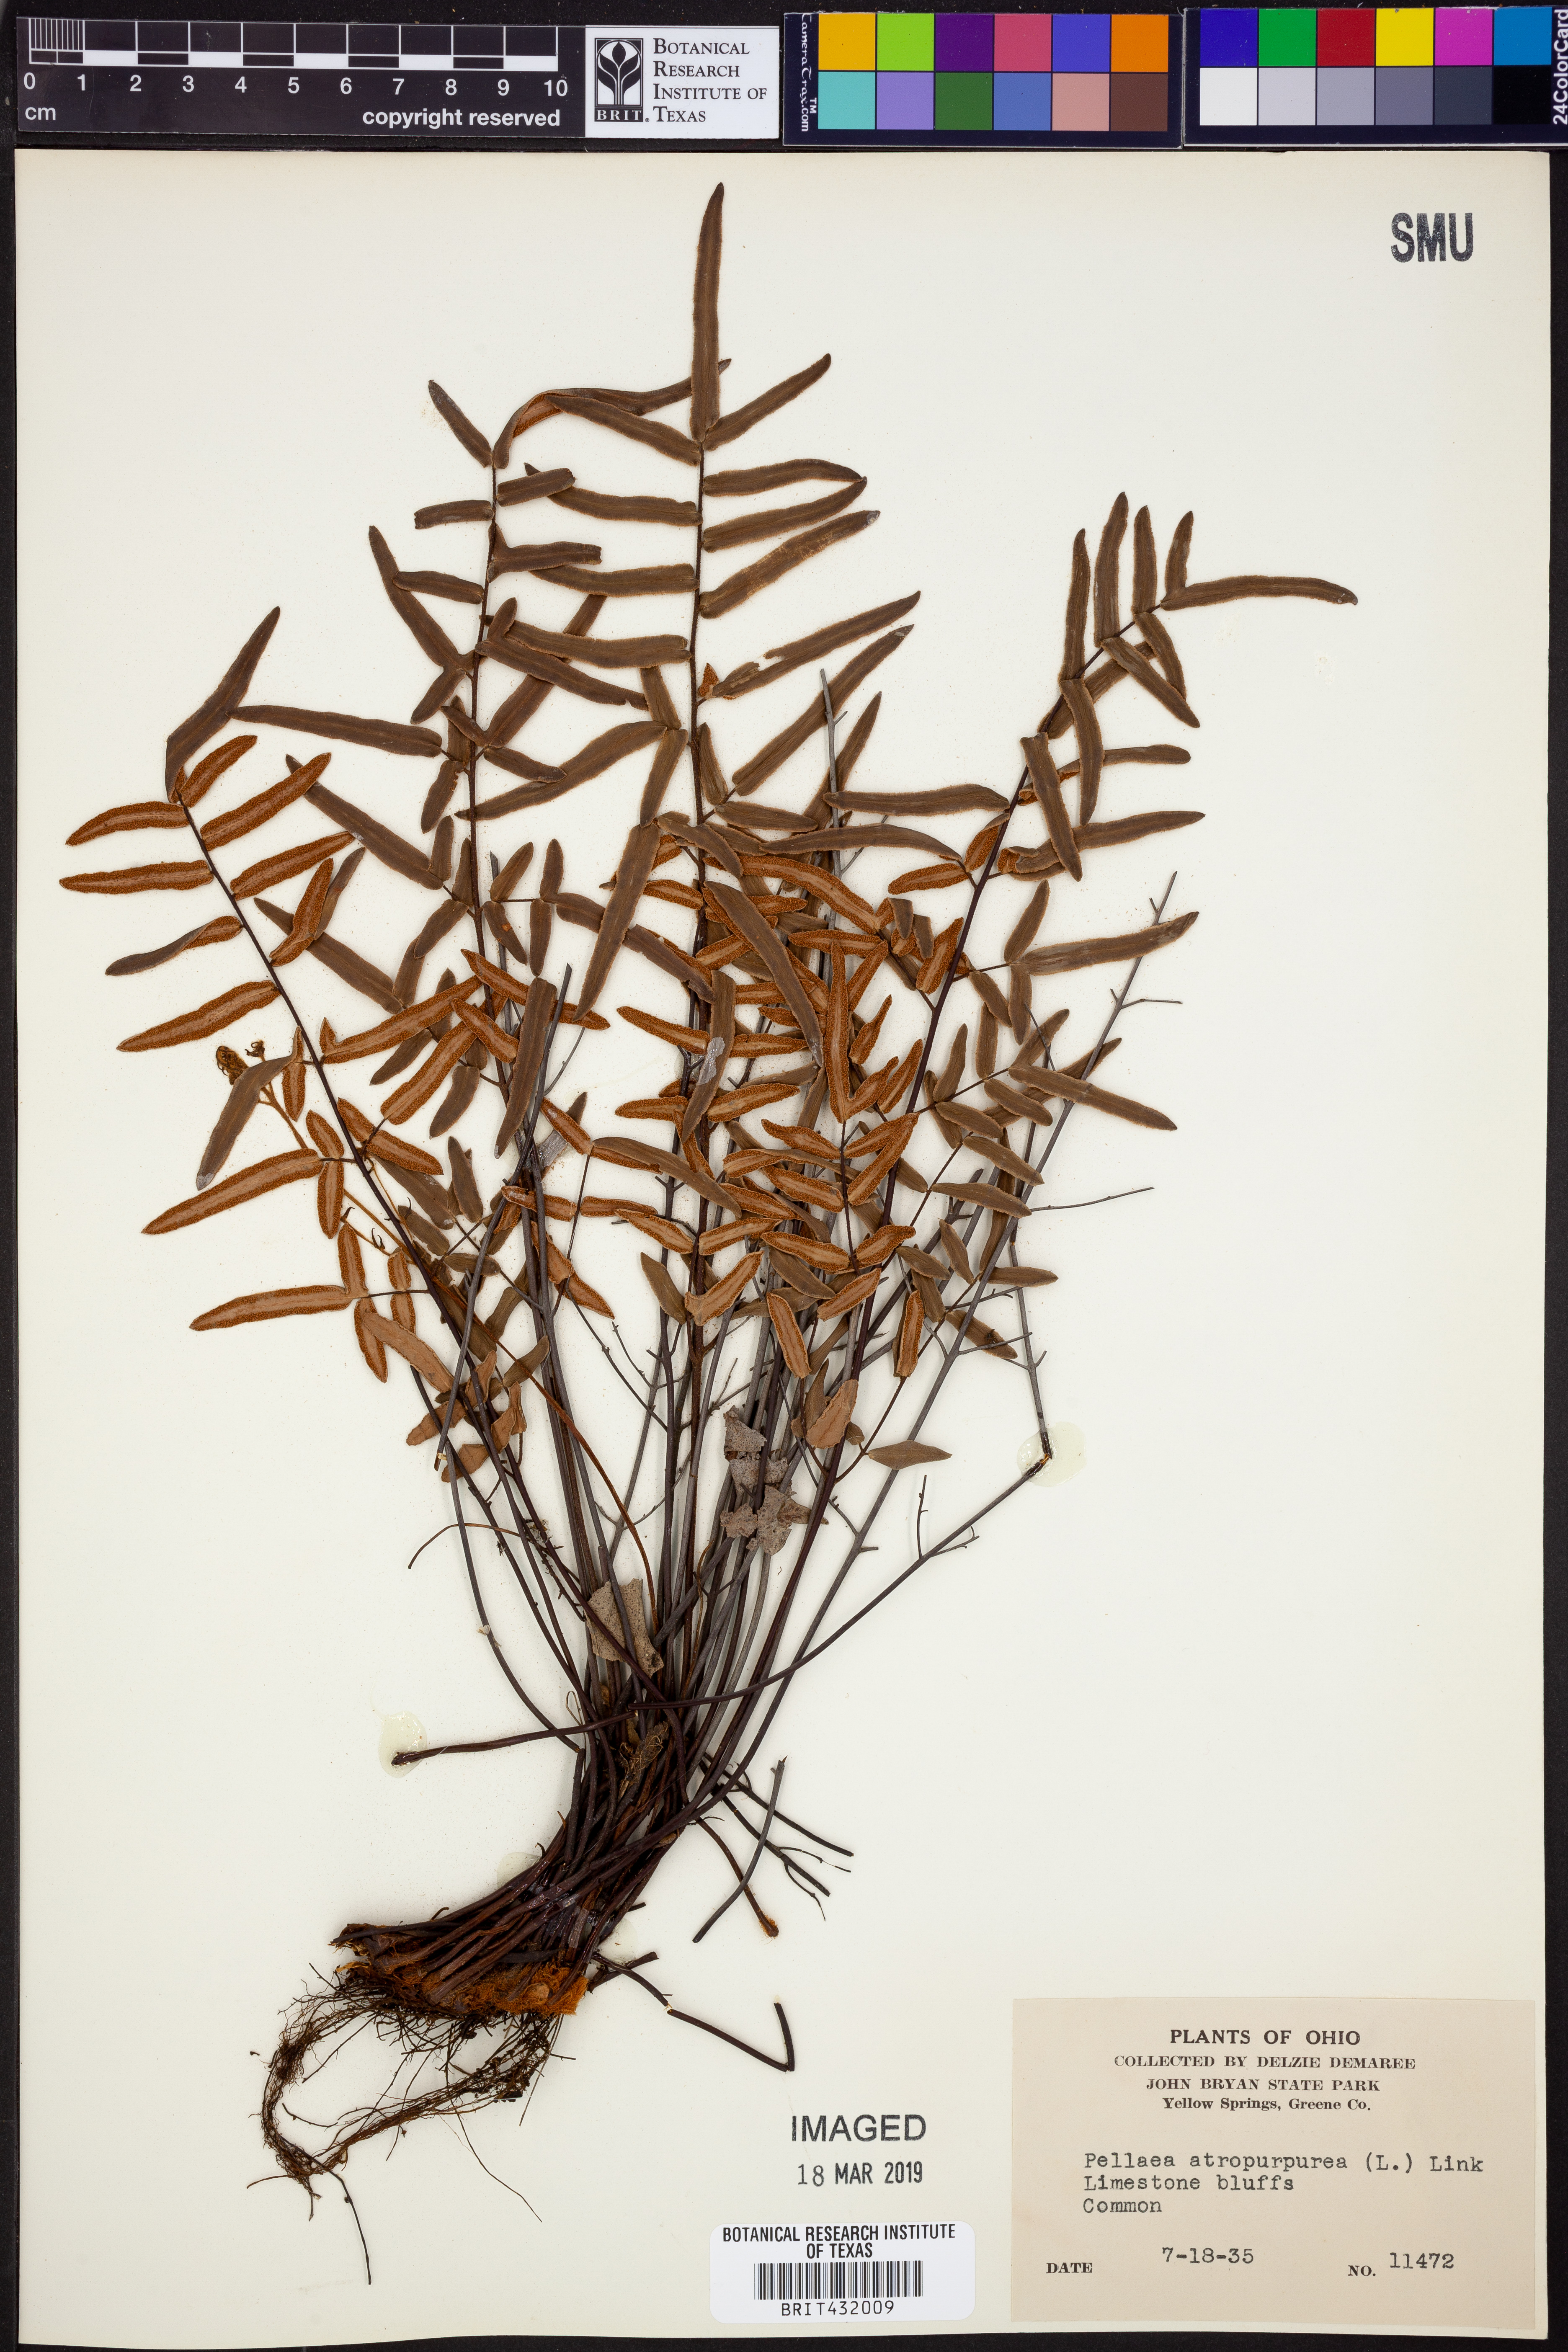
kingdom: Plantae
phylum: Tracheophyta
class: Polypodiopsida
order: Polypodiales
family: Pteridaceae
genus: Pellaea
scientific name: Pellaea atropurpurea
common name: Hairy cliffbrake
